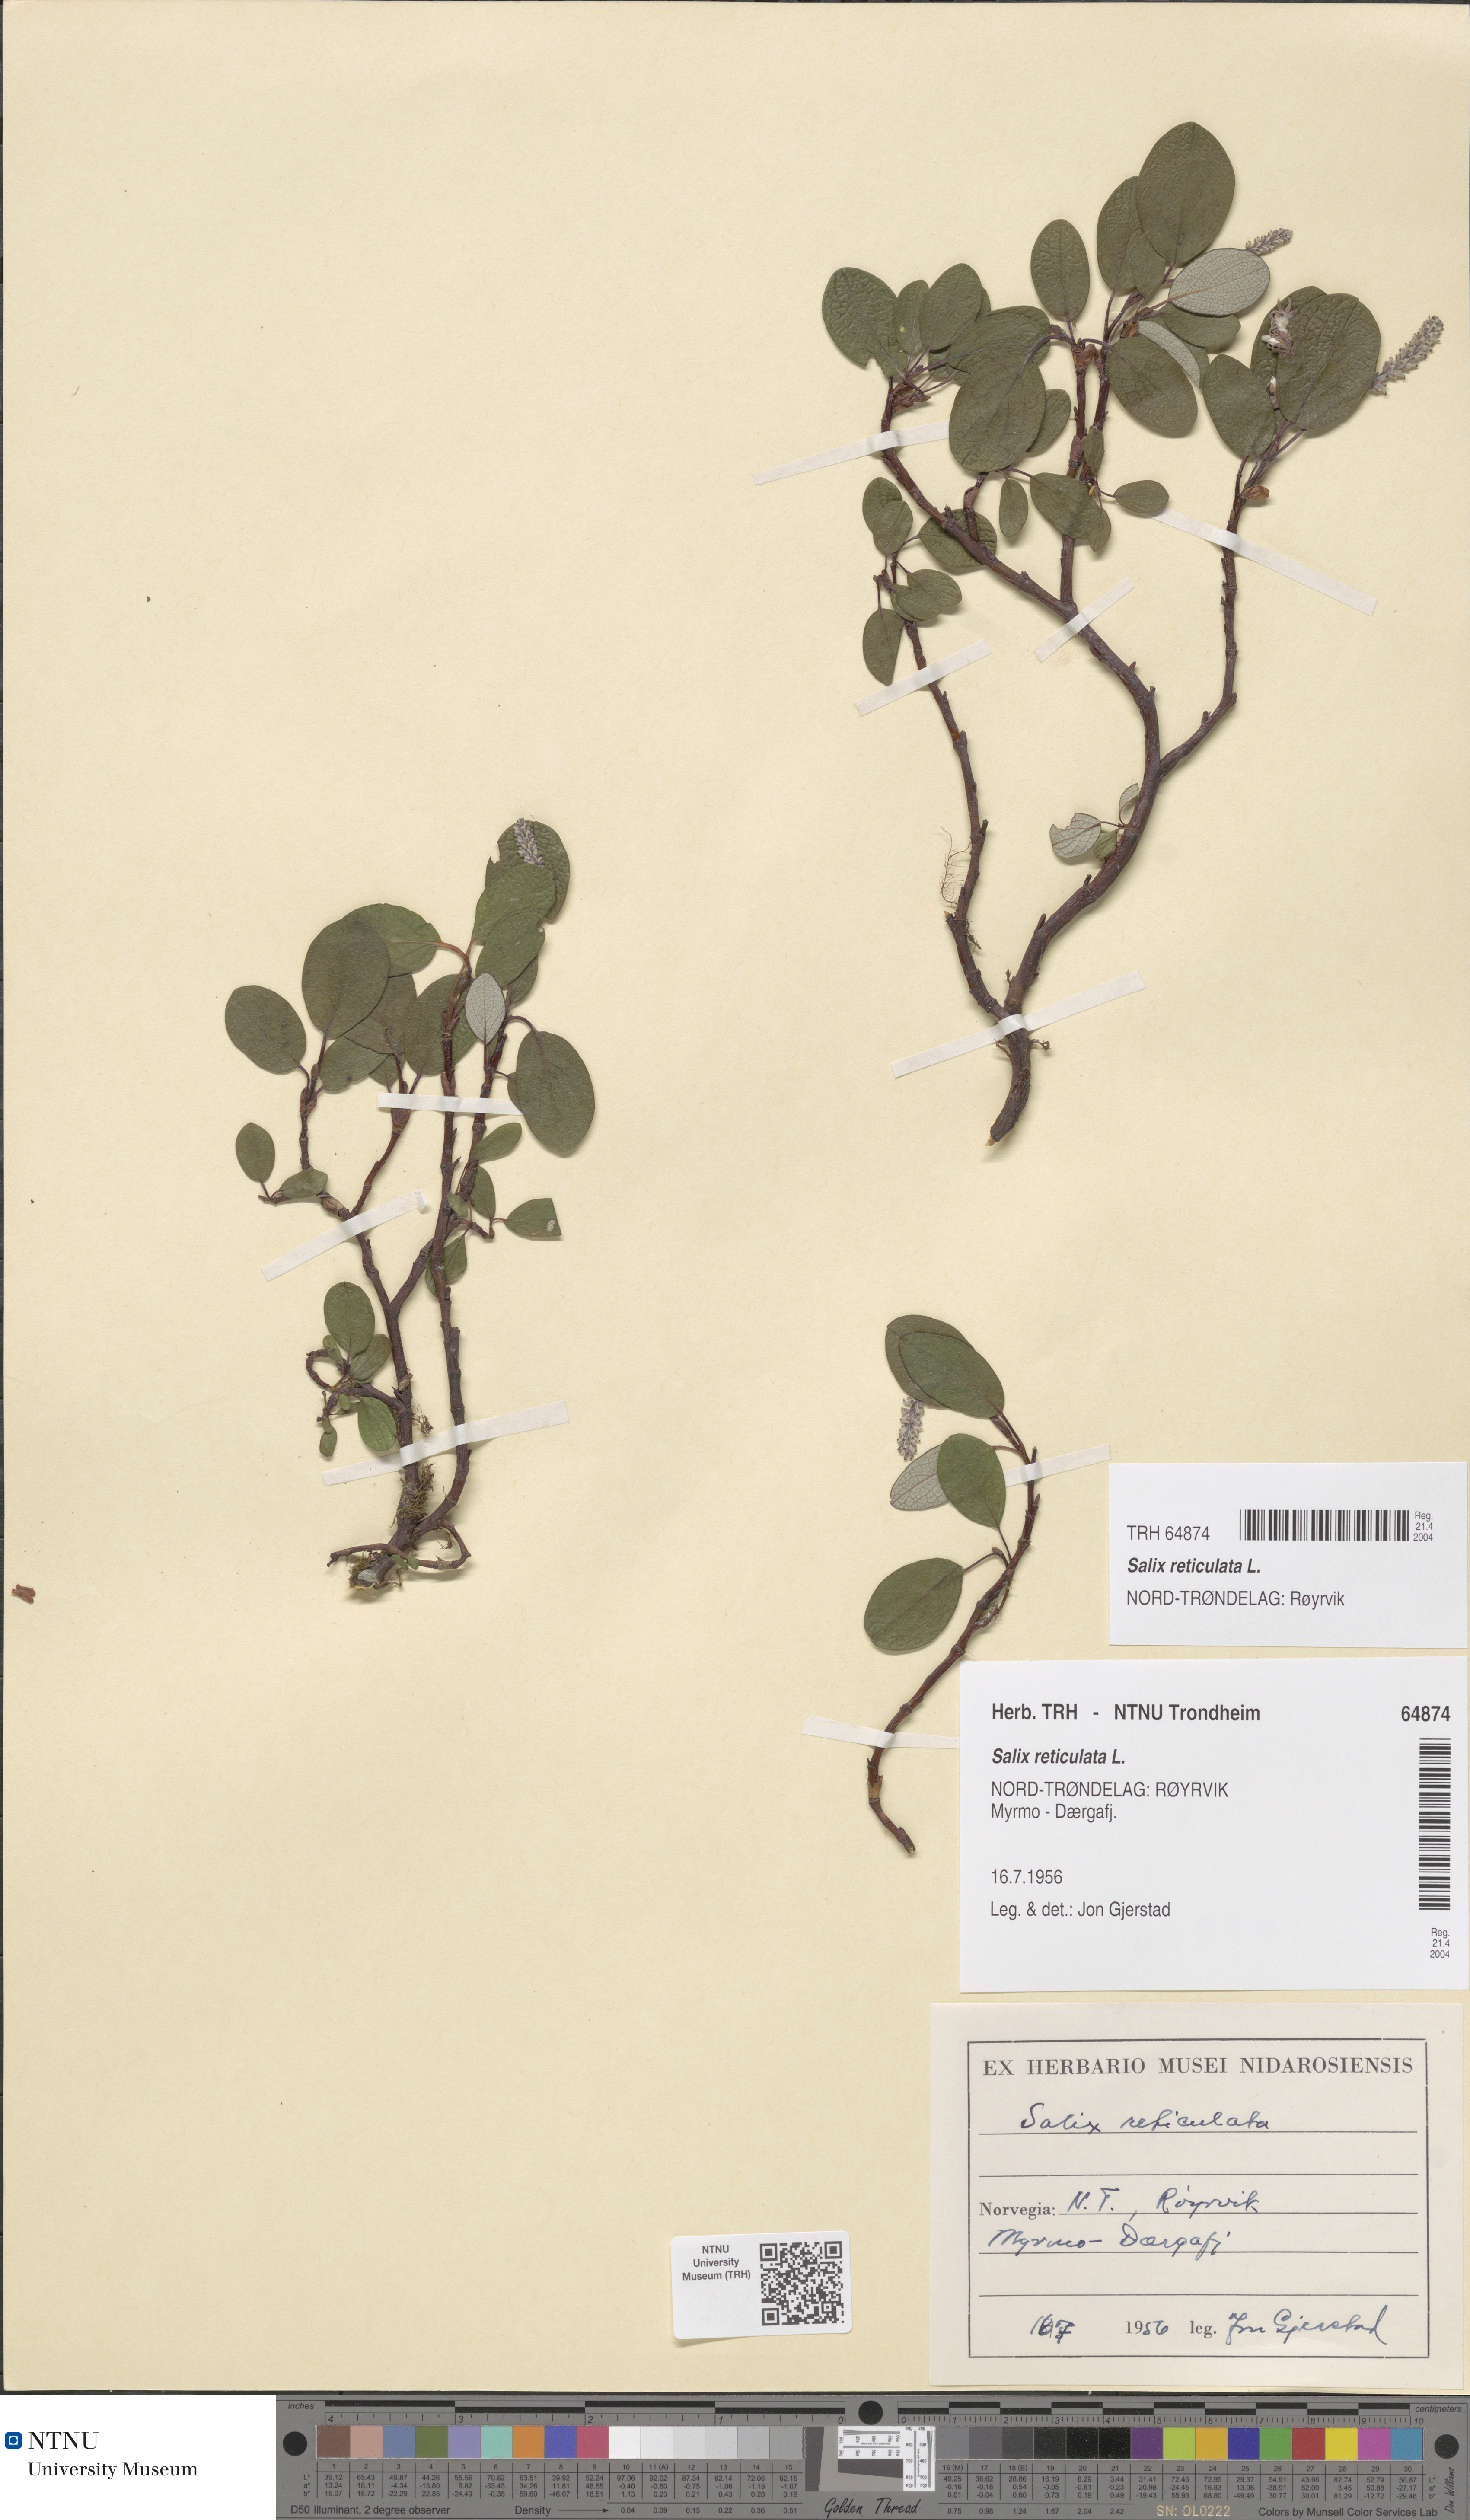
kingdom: Plantae
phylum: Tracheophyta
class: Magnoliopsida
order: Malpighiales
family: Salicaceae
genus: Salix
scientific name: Salix reticulata
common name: Net-leaved willow
